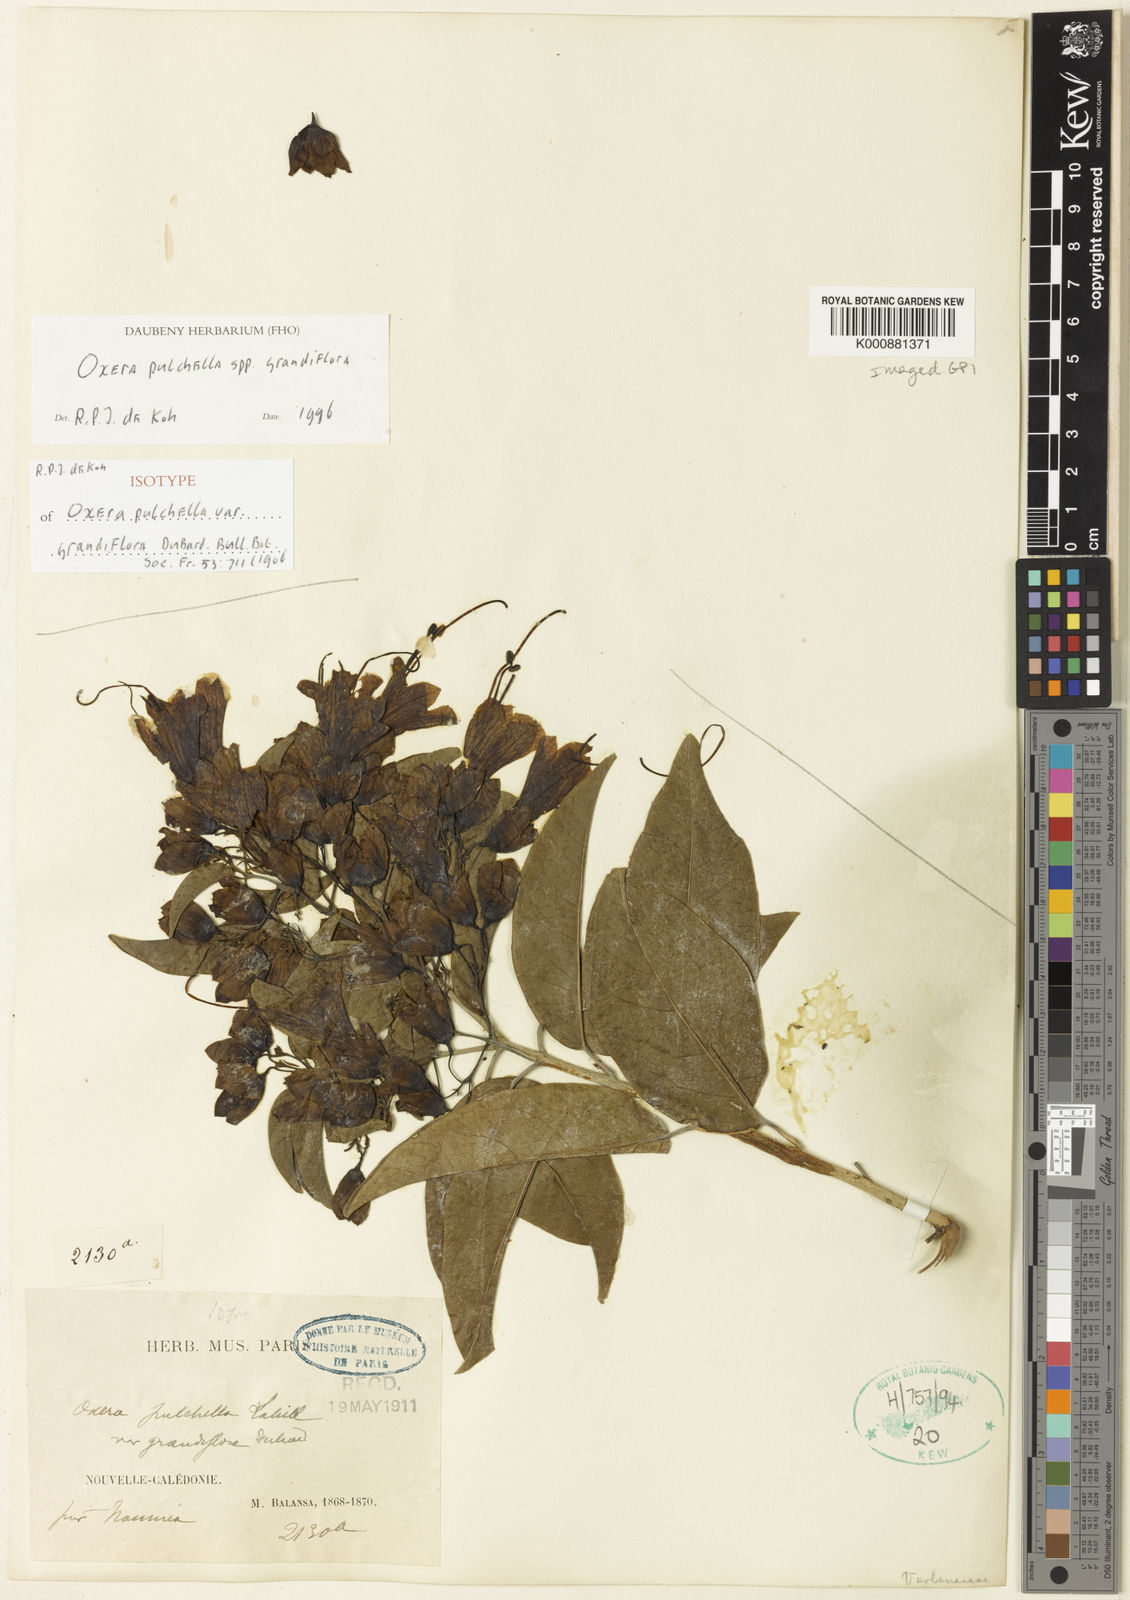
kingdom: Plantae
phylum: Tracheophyta
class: Magnoliopsida
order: Lamiales
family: Lamiaceae
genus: Oxera
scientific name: Oxera pulchella
